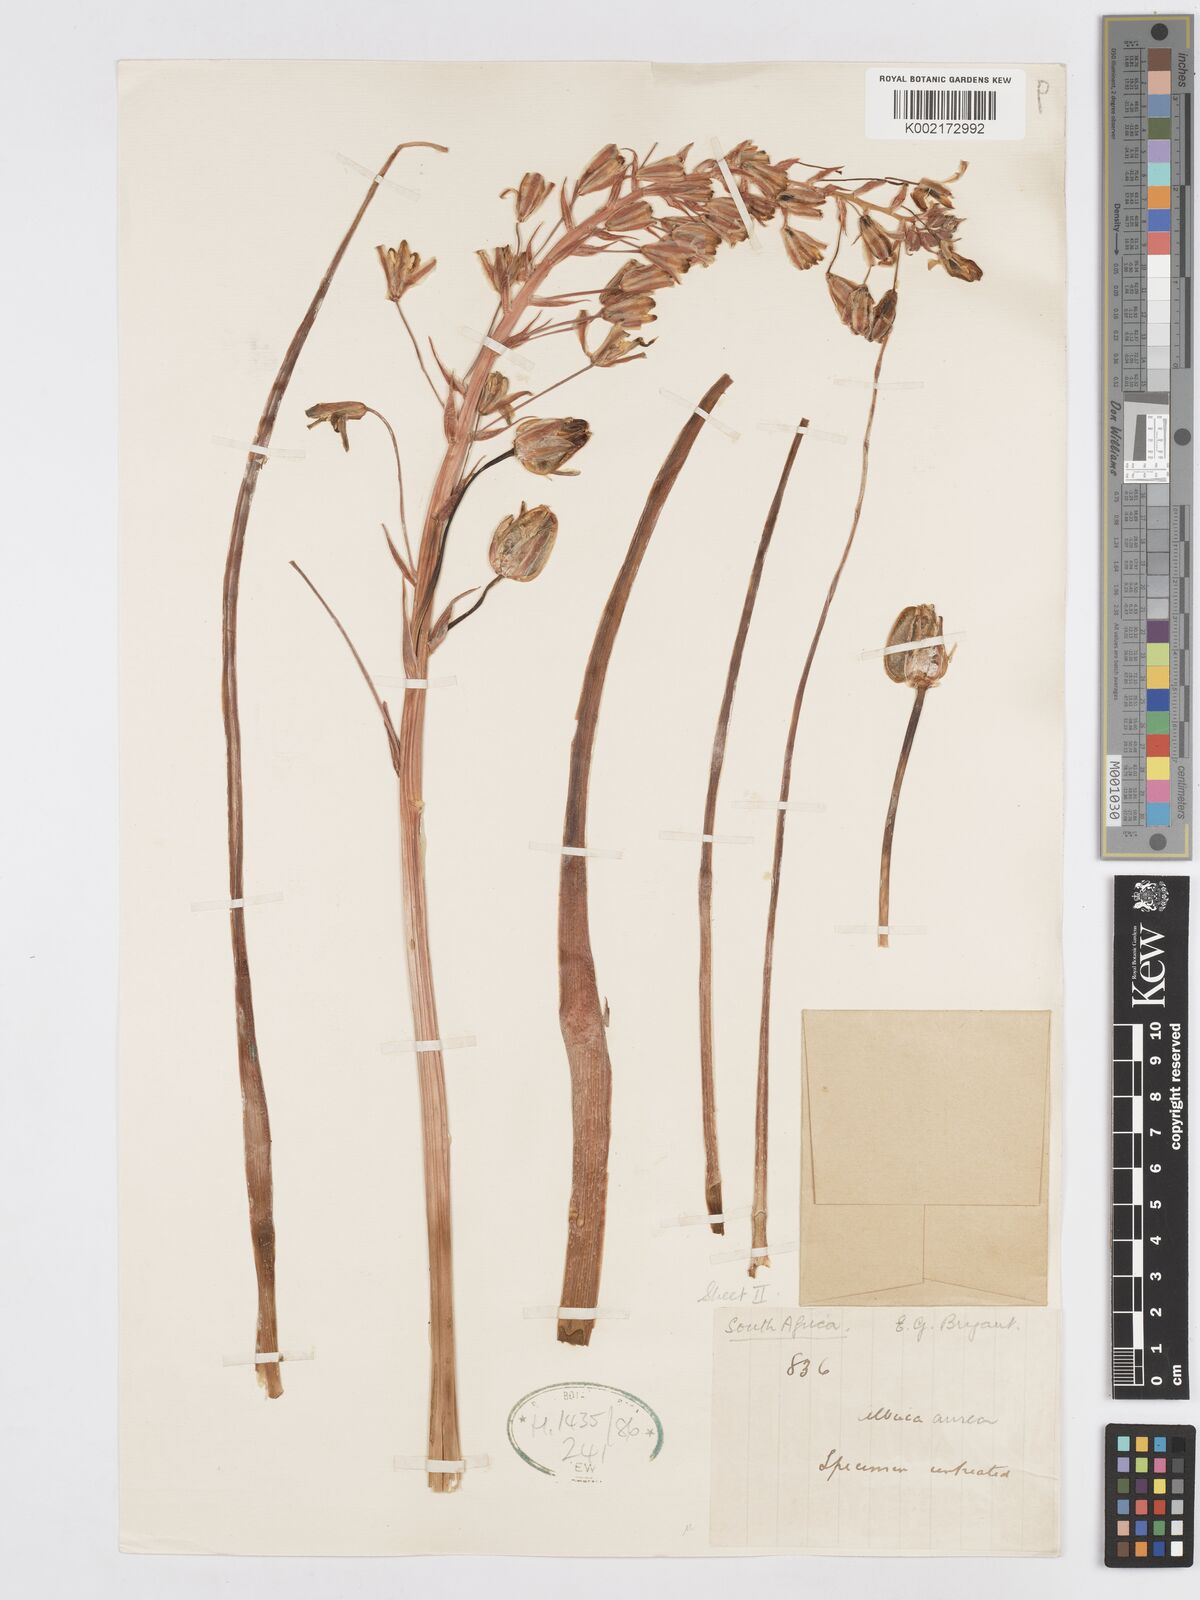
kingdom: Plantae
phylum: Tracheophyta
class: Liliopsida
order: Asparagales
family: Asparagaceae
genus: Albuca
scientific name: Albuca aurea
